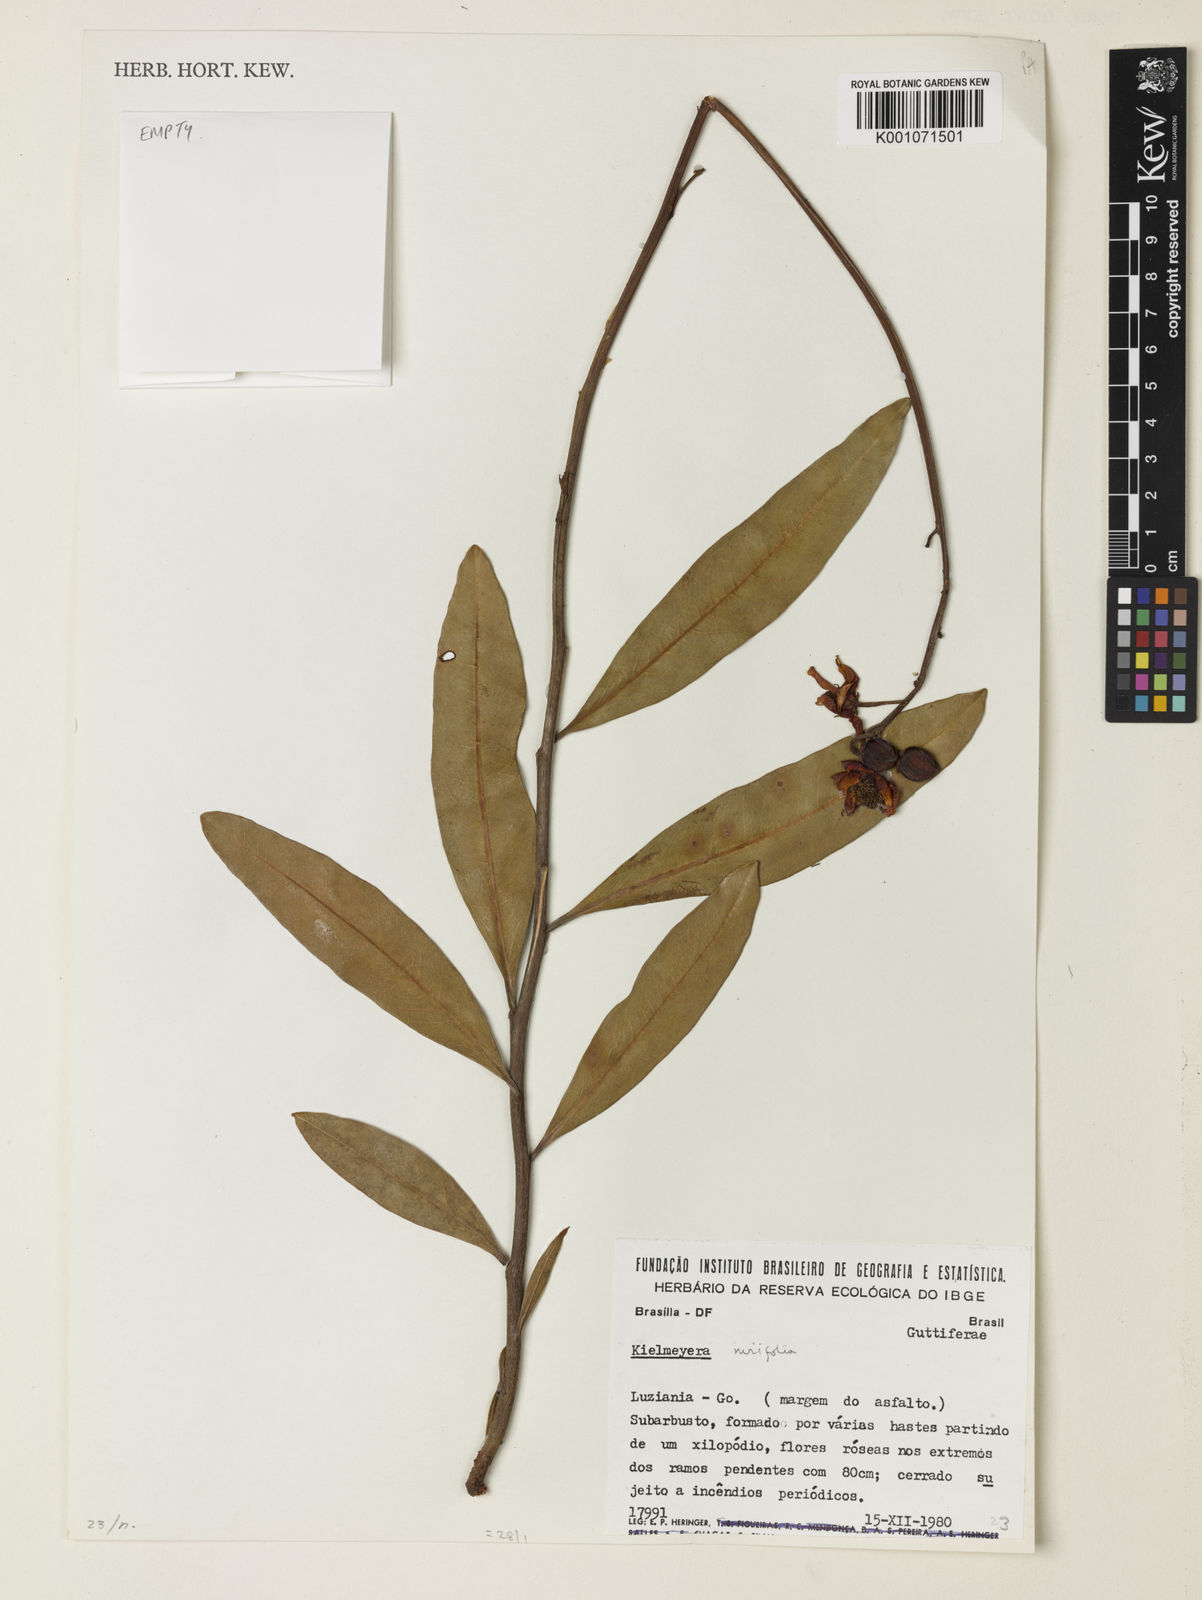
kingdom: Plantae
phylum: Tracheophyta
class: Magnoliopsida
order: Malpighiales
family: Calophyllaceae
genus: Kielmeyera
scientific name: Kielmeyera pumila
